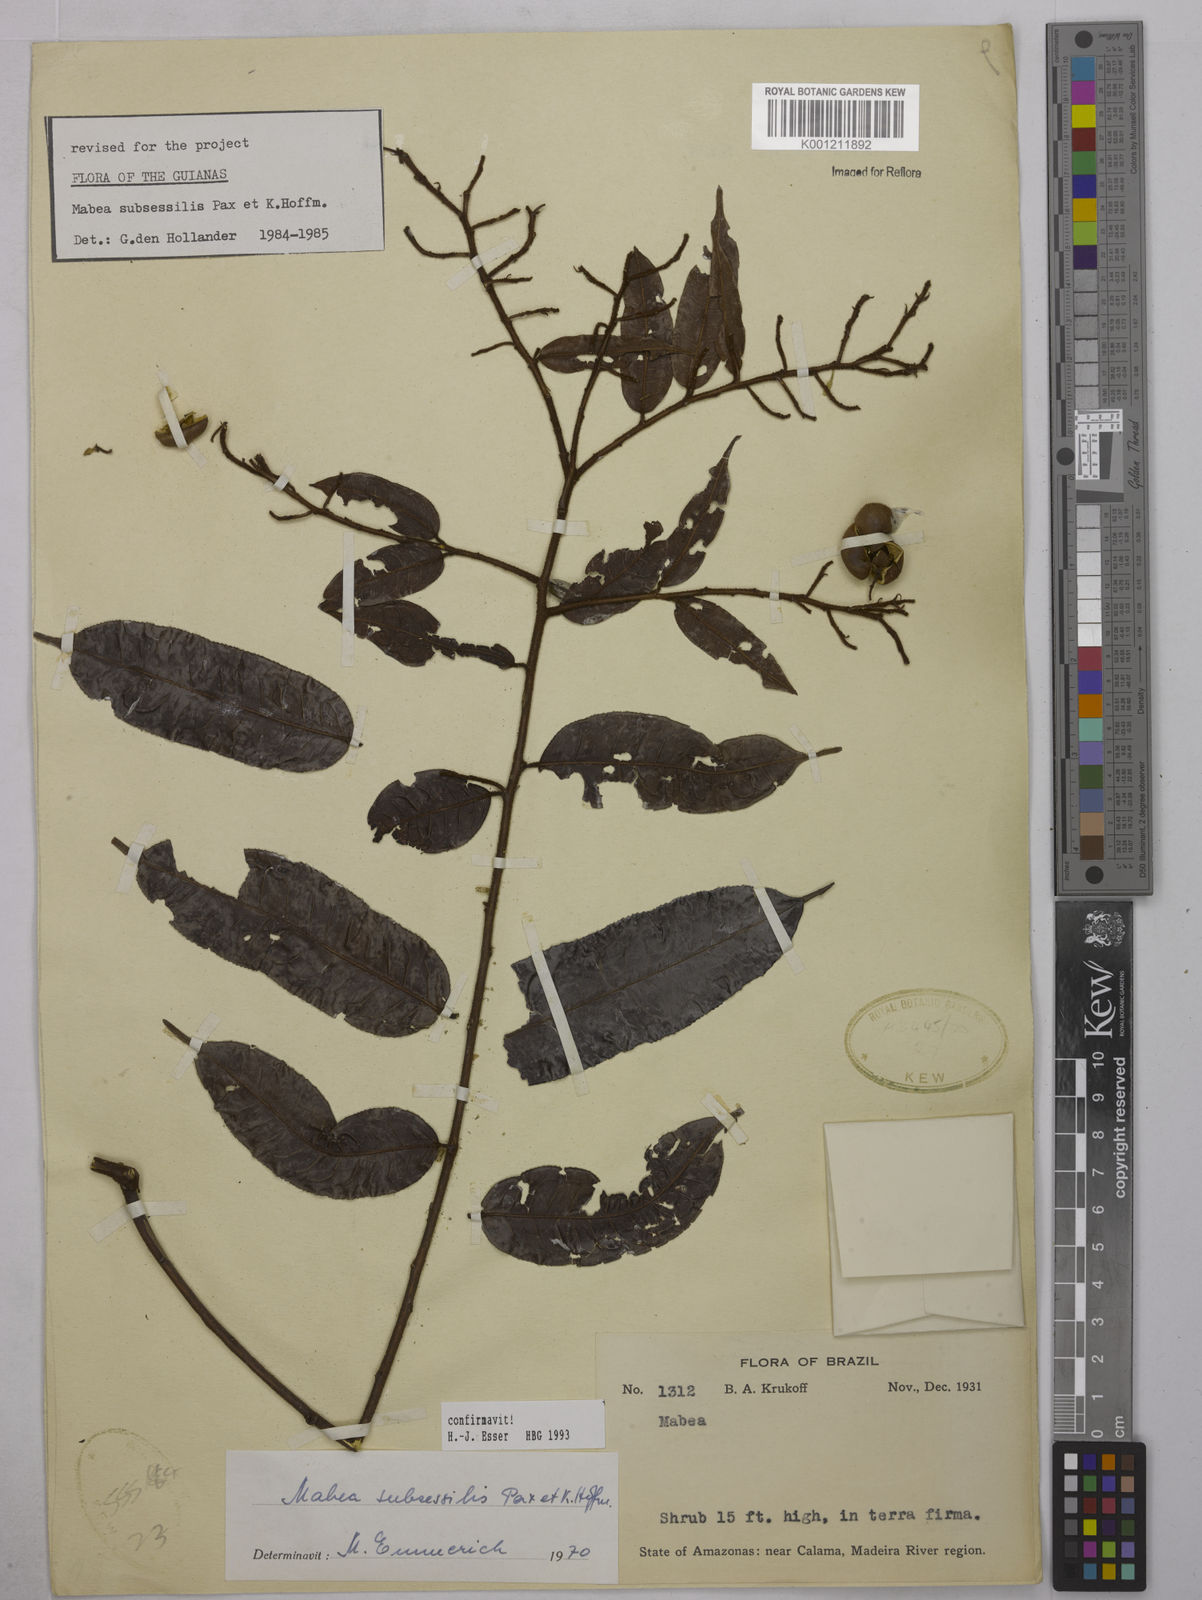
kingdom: Plantae
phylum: Tracheophyta
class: Magnoliopsida
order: Malpighiales
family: Euphorbiaceae
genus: Mabea
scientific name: Mabea subsessilis
